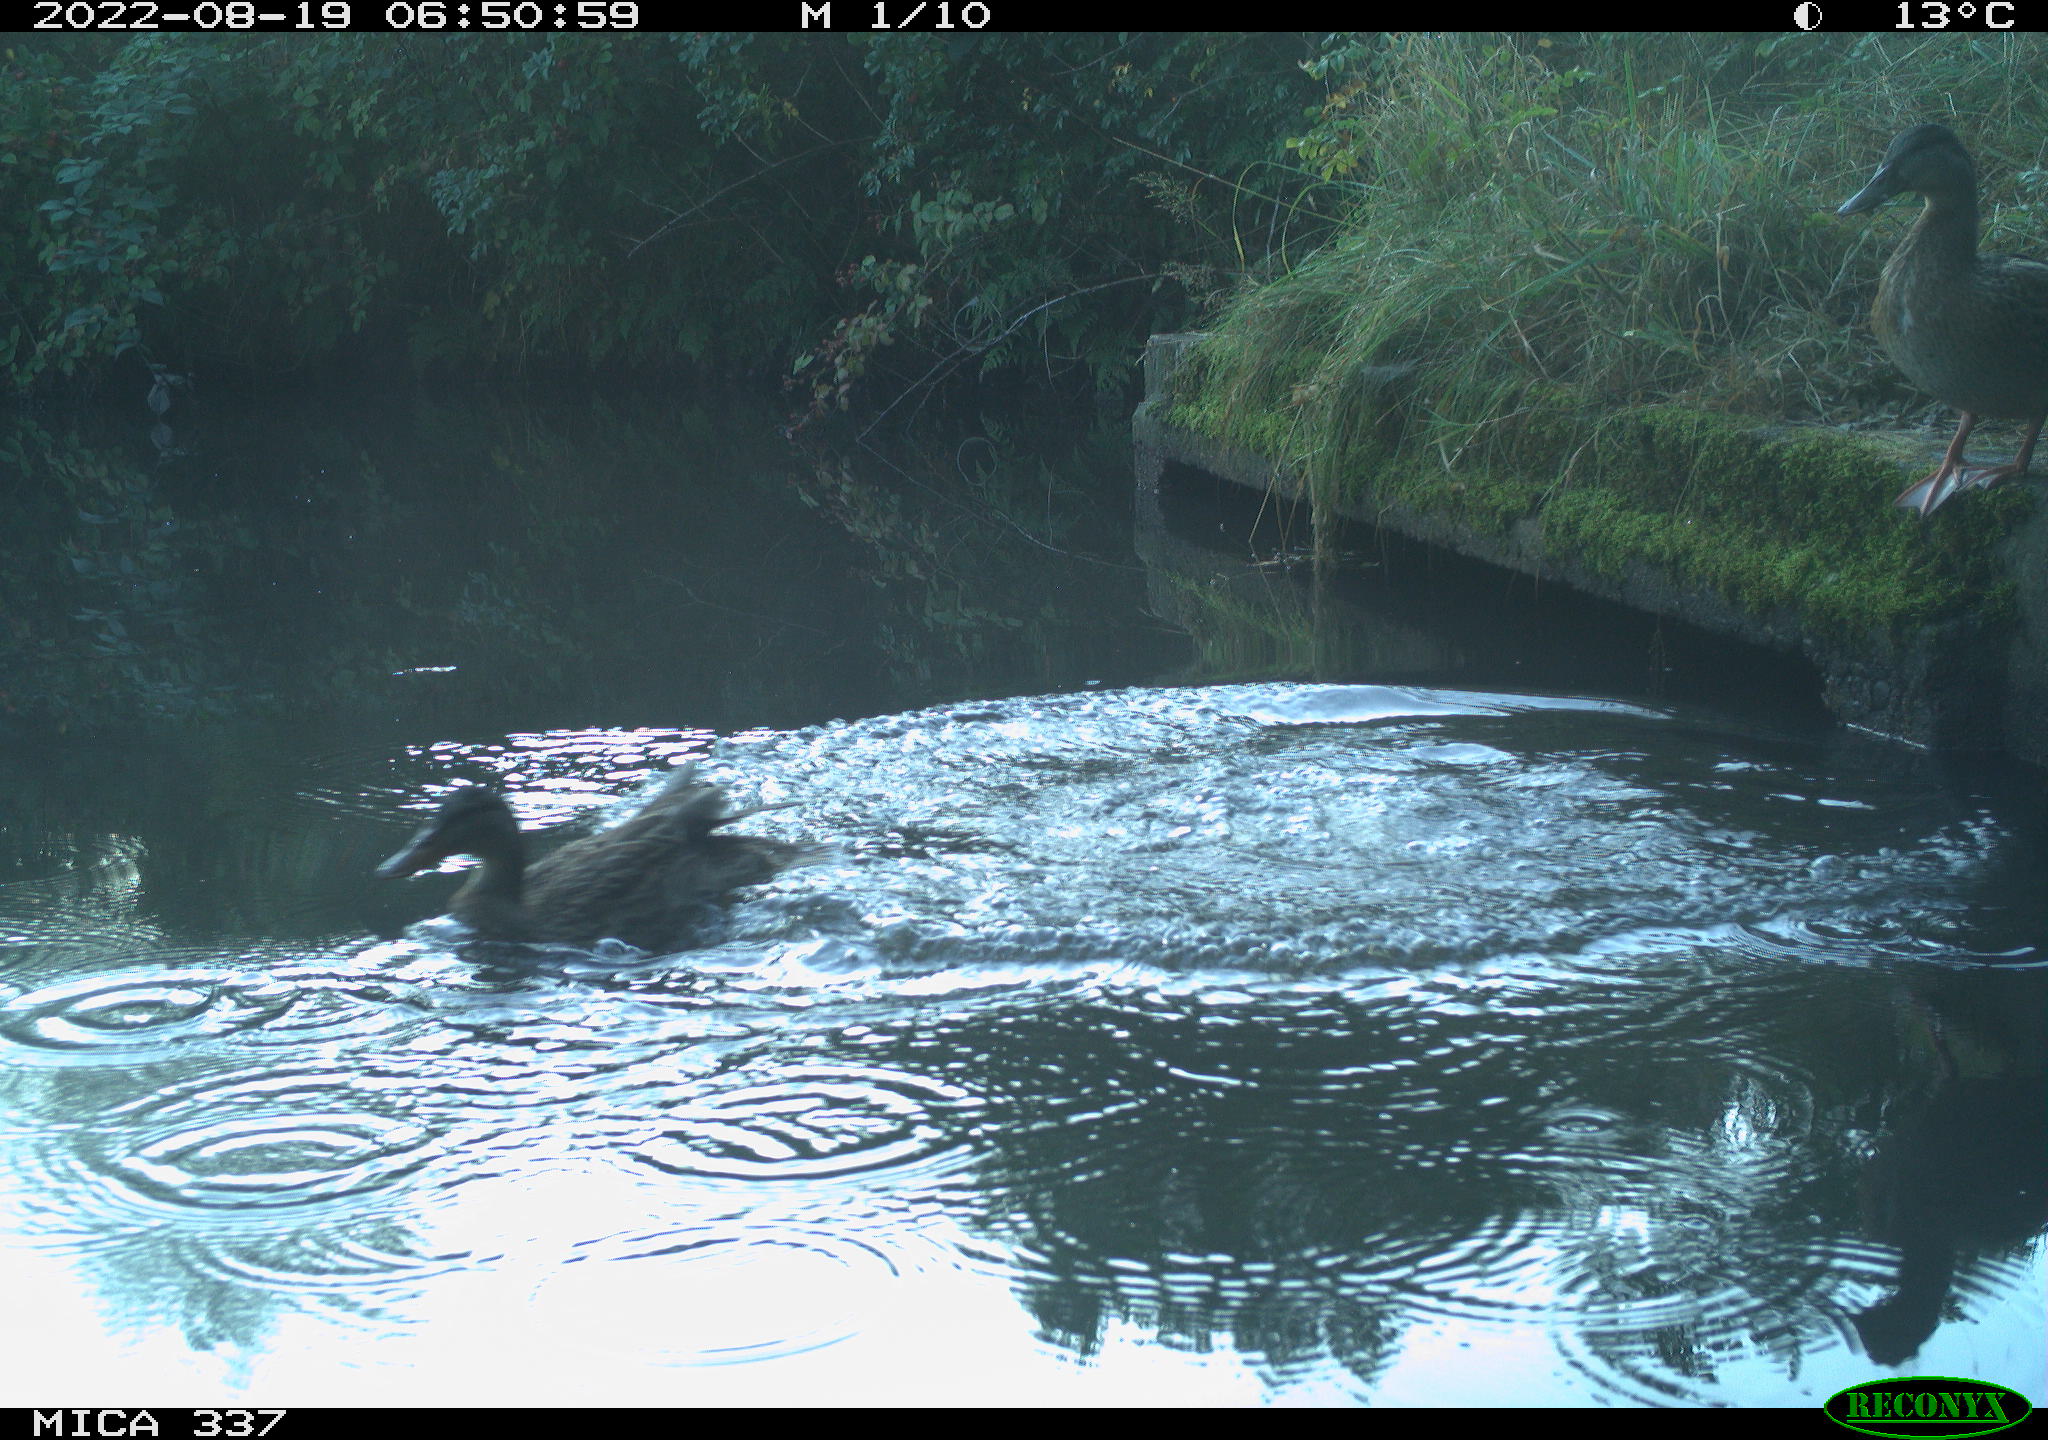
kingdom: Animalia
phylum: Chordata
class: Aves
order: Anseriformes
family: Anatidae
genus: Anas
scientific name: Anas platyrhynchos
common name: Mallard
